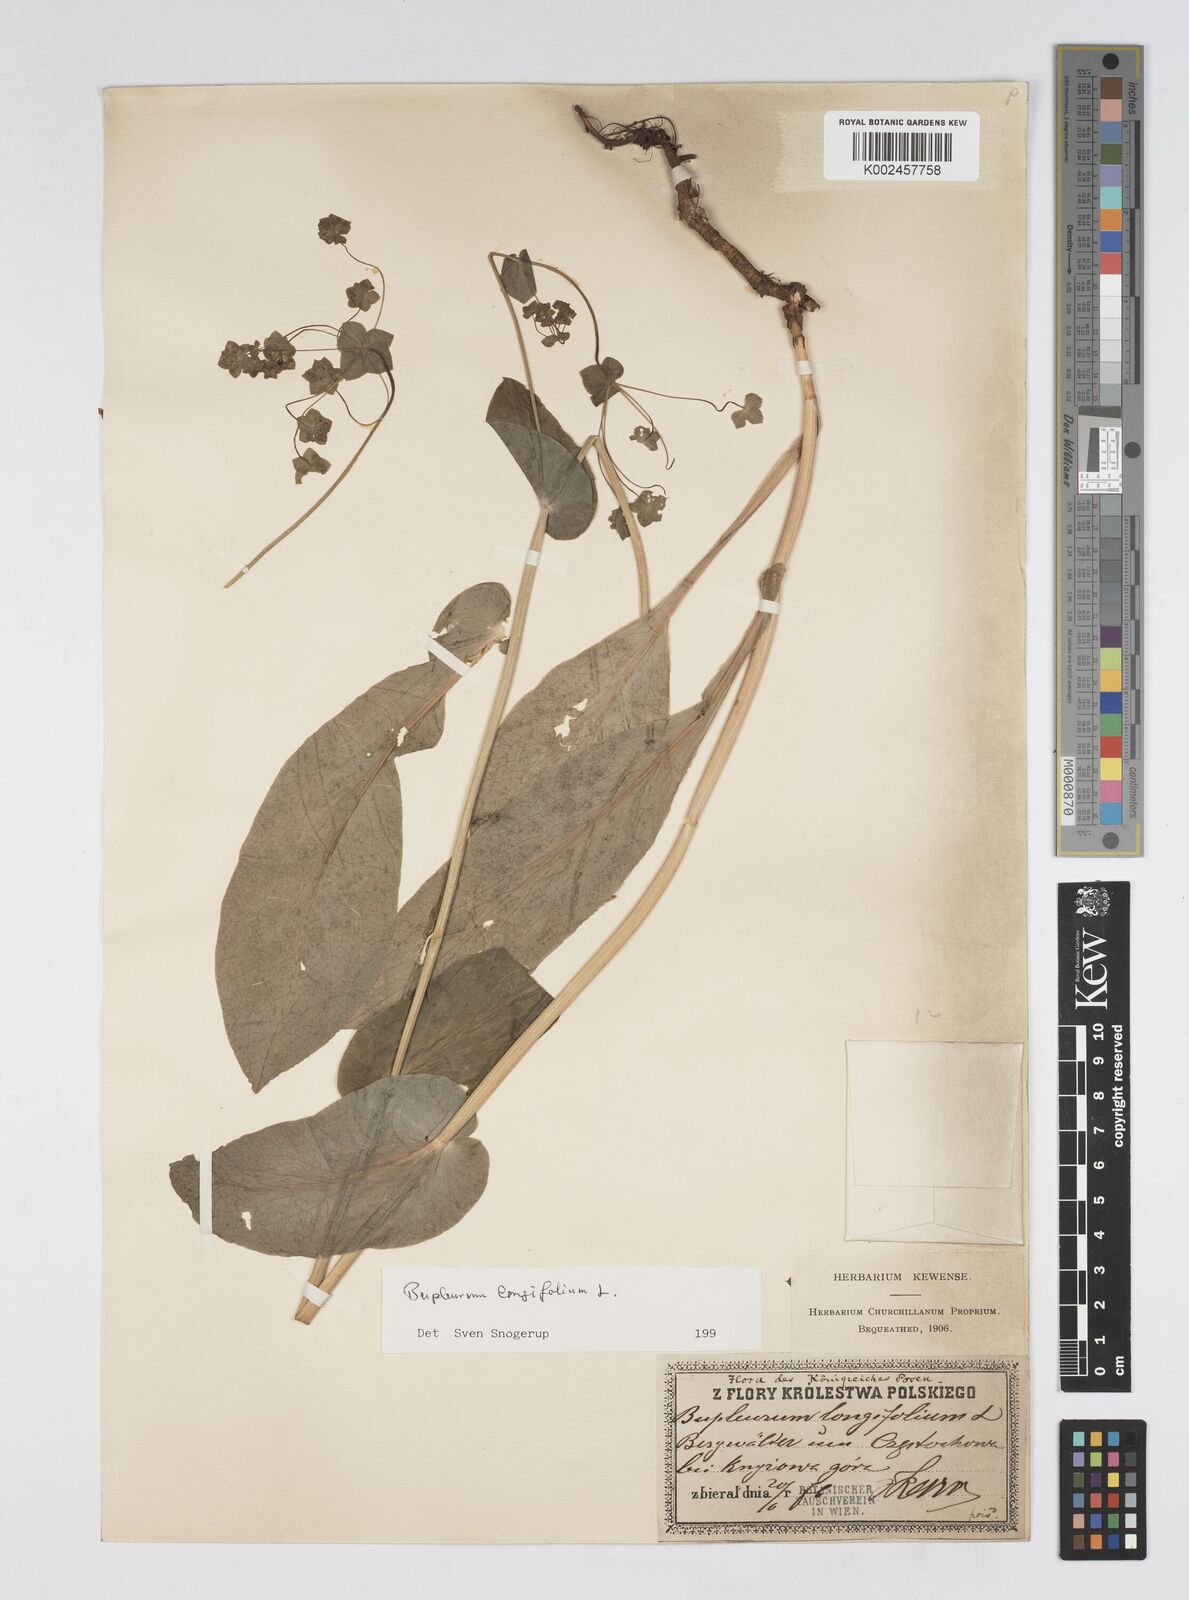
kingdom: Plantae
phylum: Tracheophyta
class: Magnoliopsida
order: Apiales
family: Apiaceae
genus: Bupleurum
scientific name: Bupleurum longifolium
